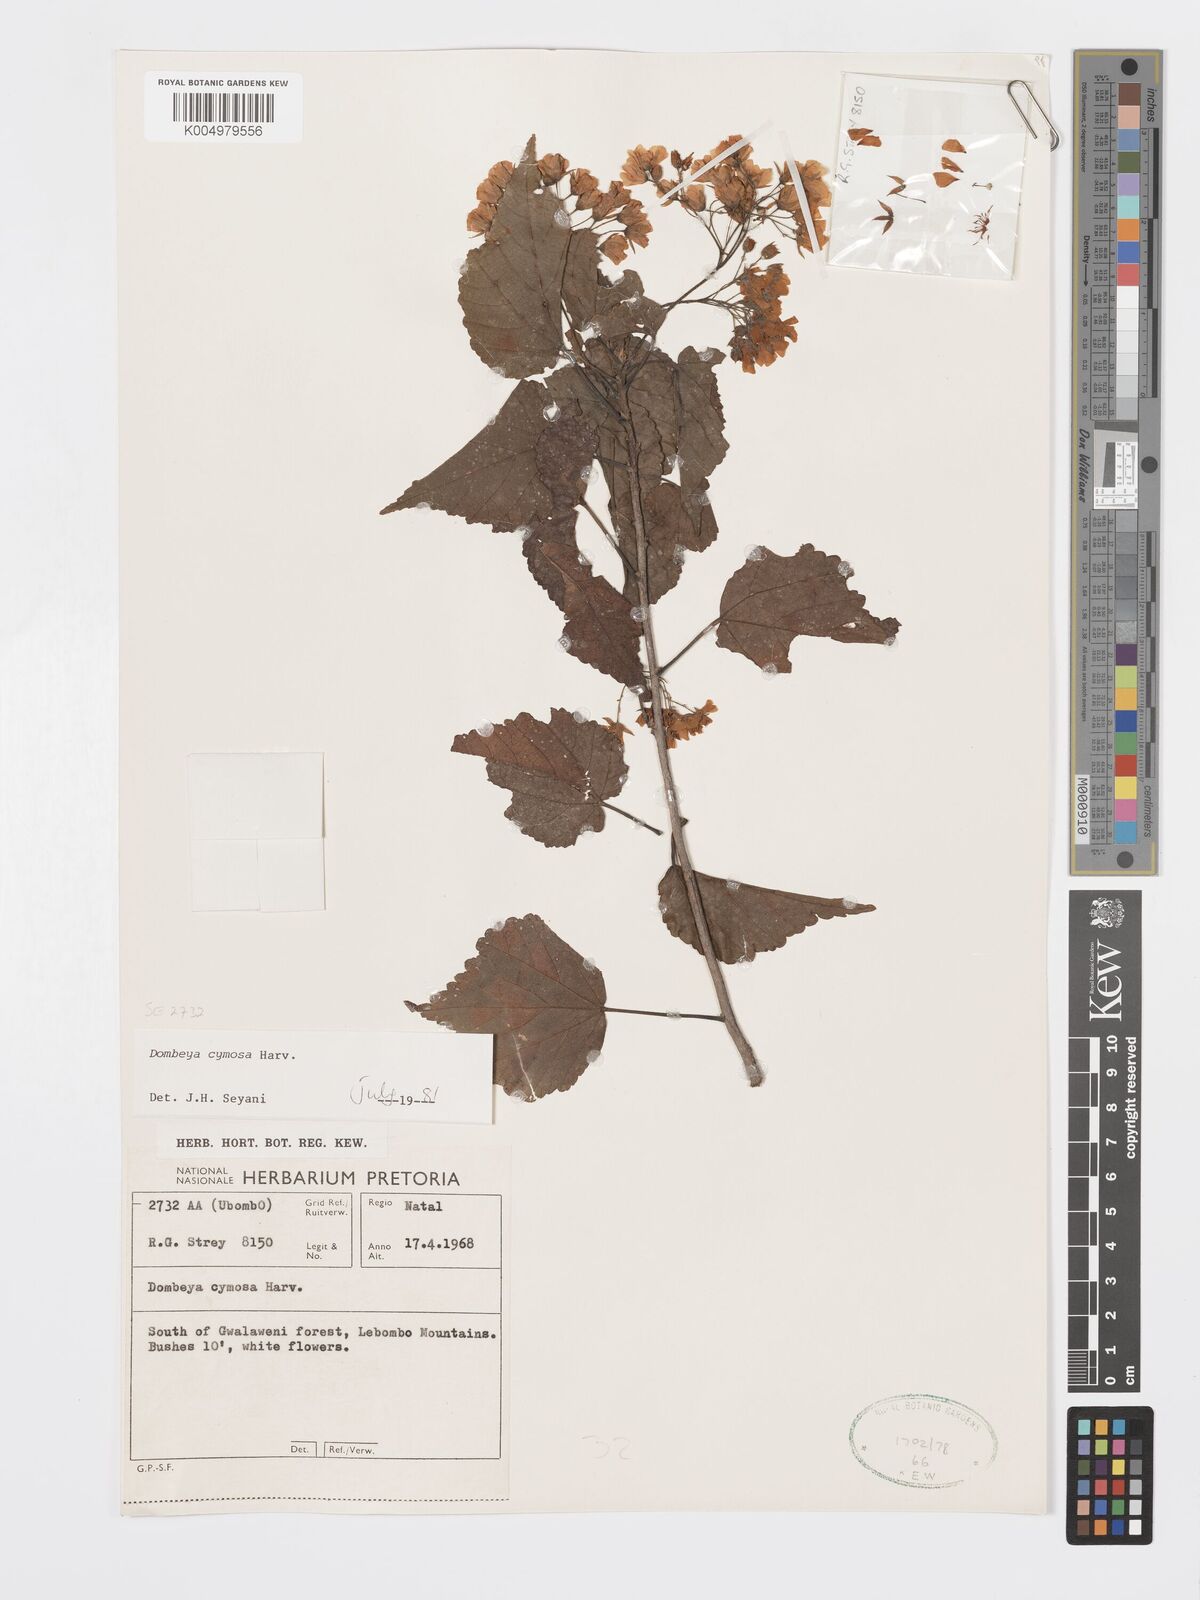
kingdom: Plantae
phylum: Tracheophyta
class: Magnoliopsida
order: Malvales
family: Malvaceae
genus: Dombeya
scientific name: Dombeya cymosa
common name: Hairless dombeya
